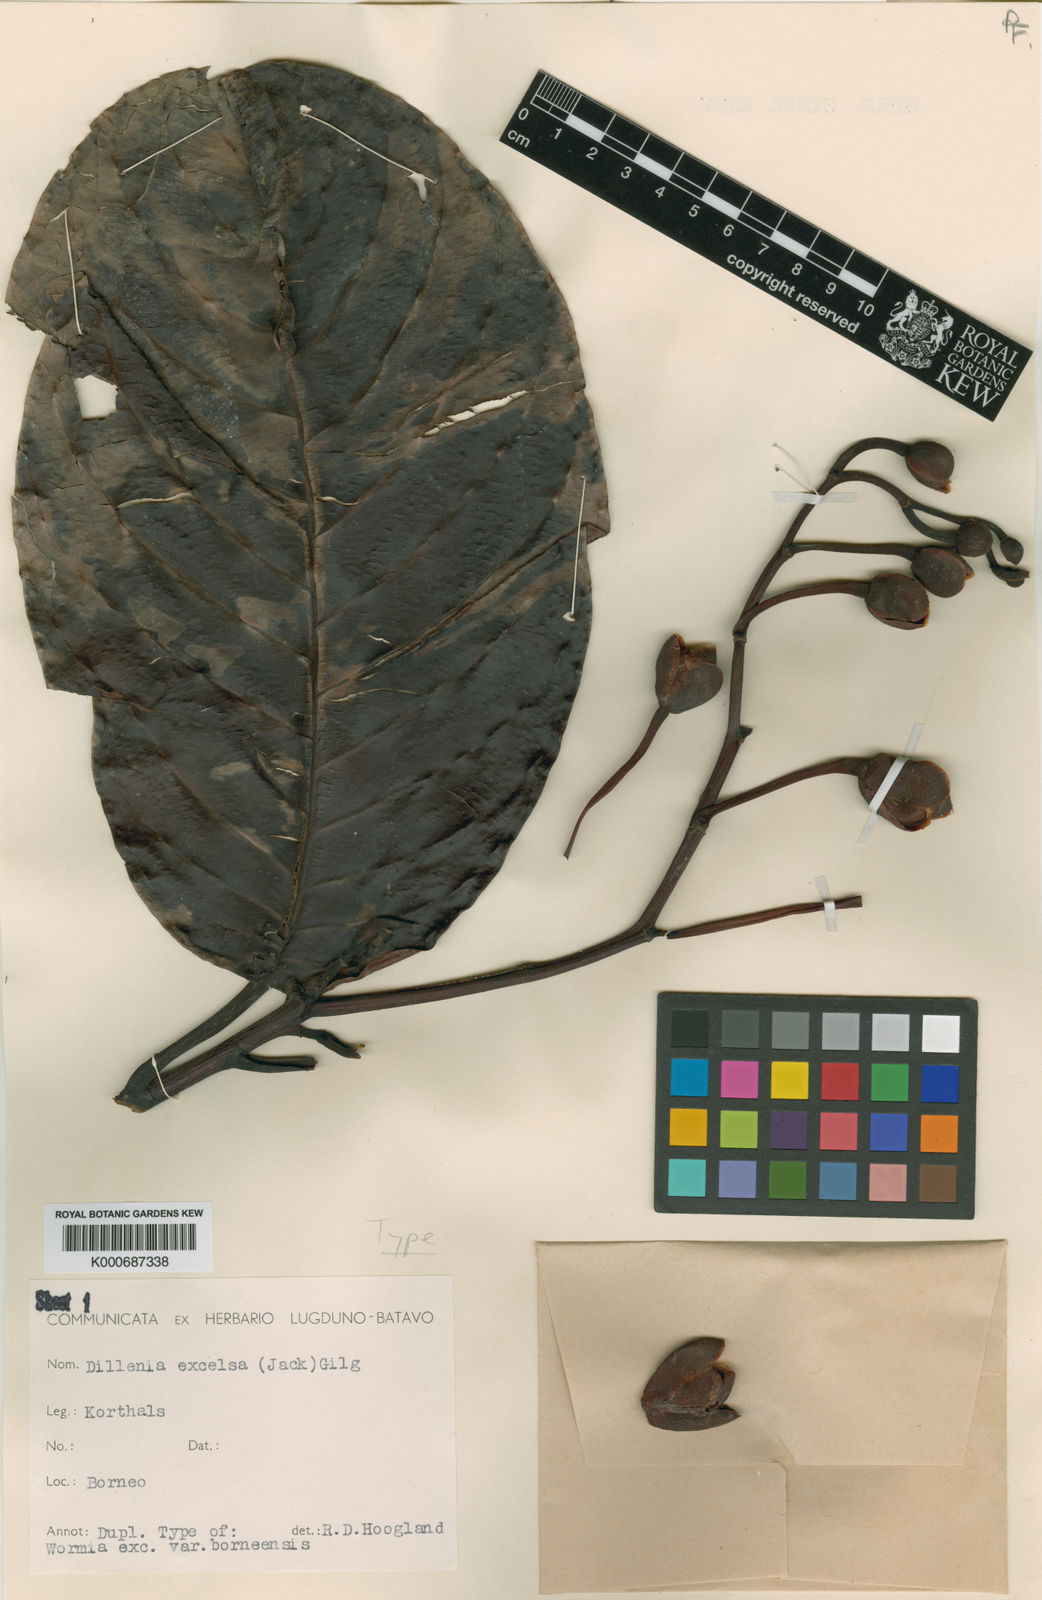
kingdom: Plantae
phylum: Tracheophyta
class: Magnoliopsida
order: Dilleniales
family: Dilleniaceae
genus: Dillenia
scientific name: Dillenia
